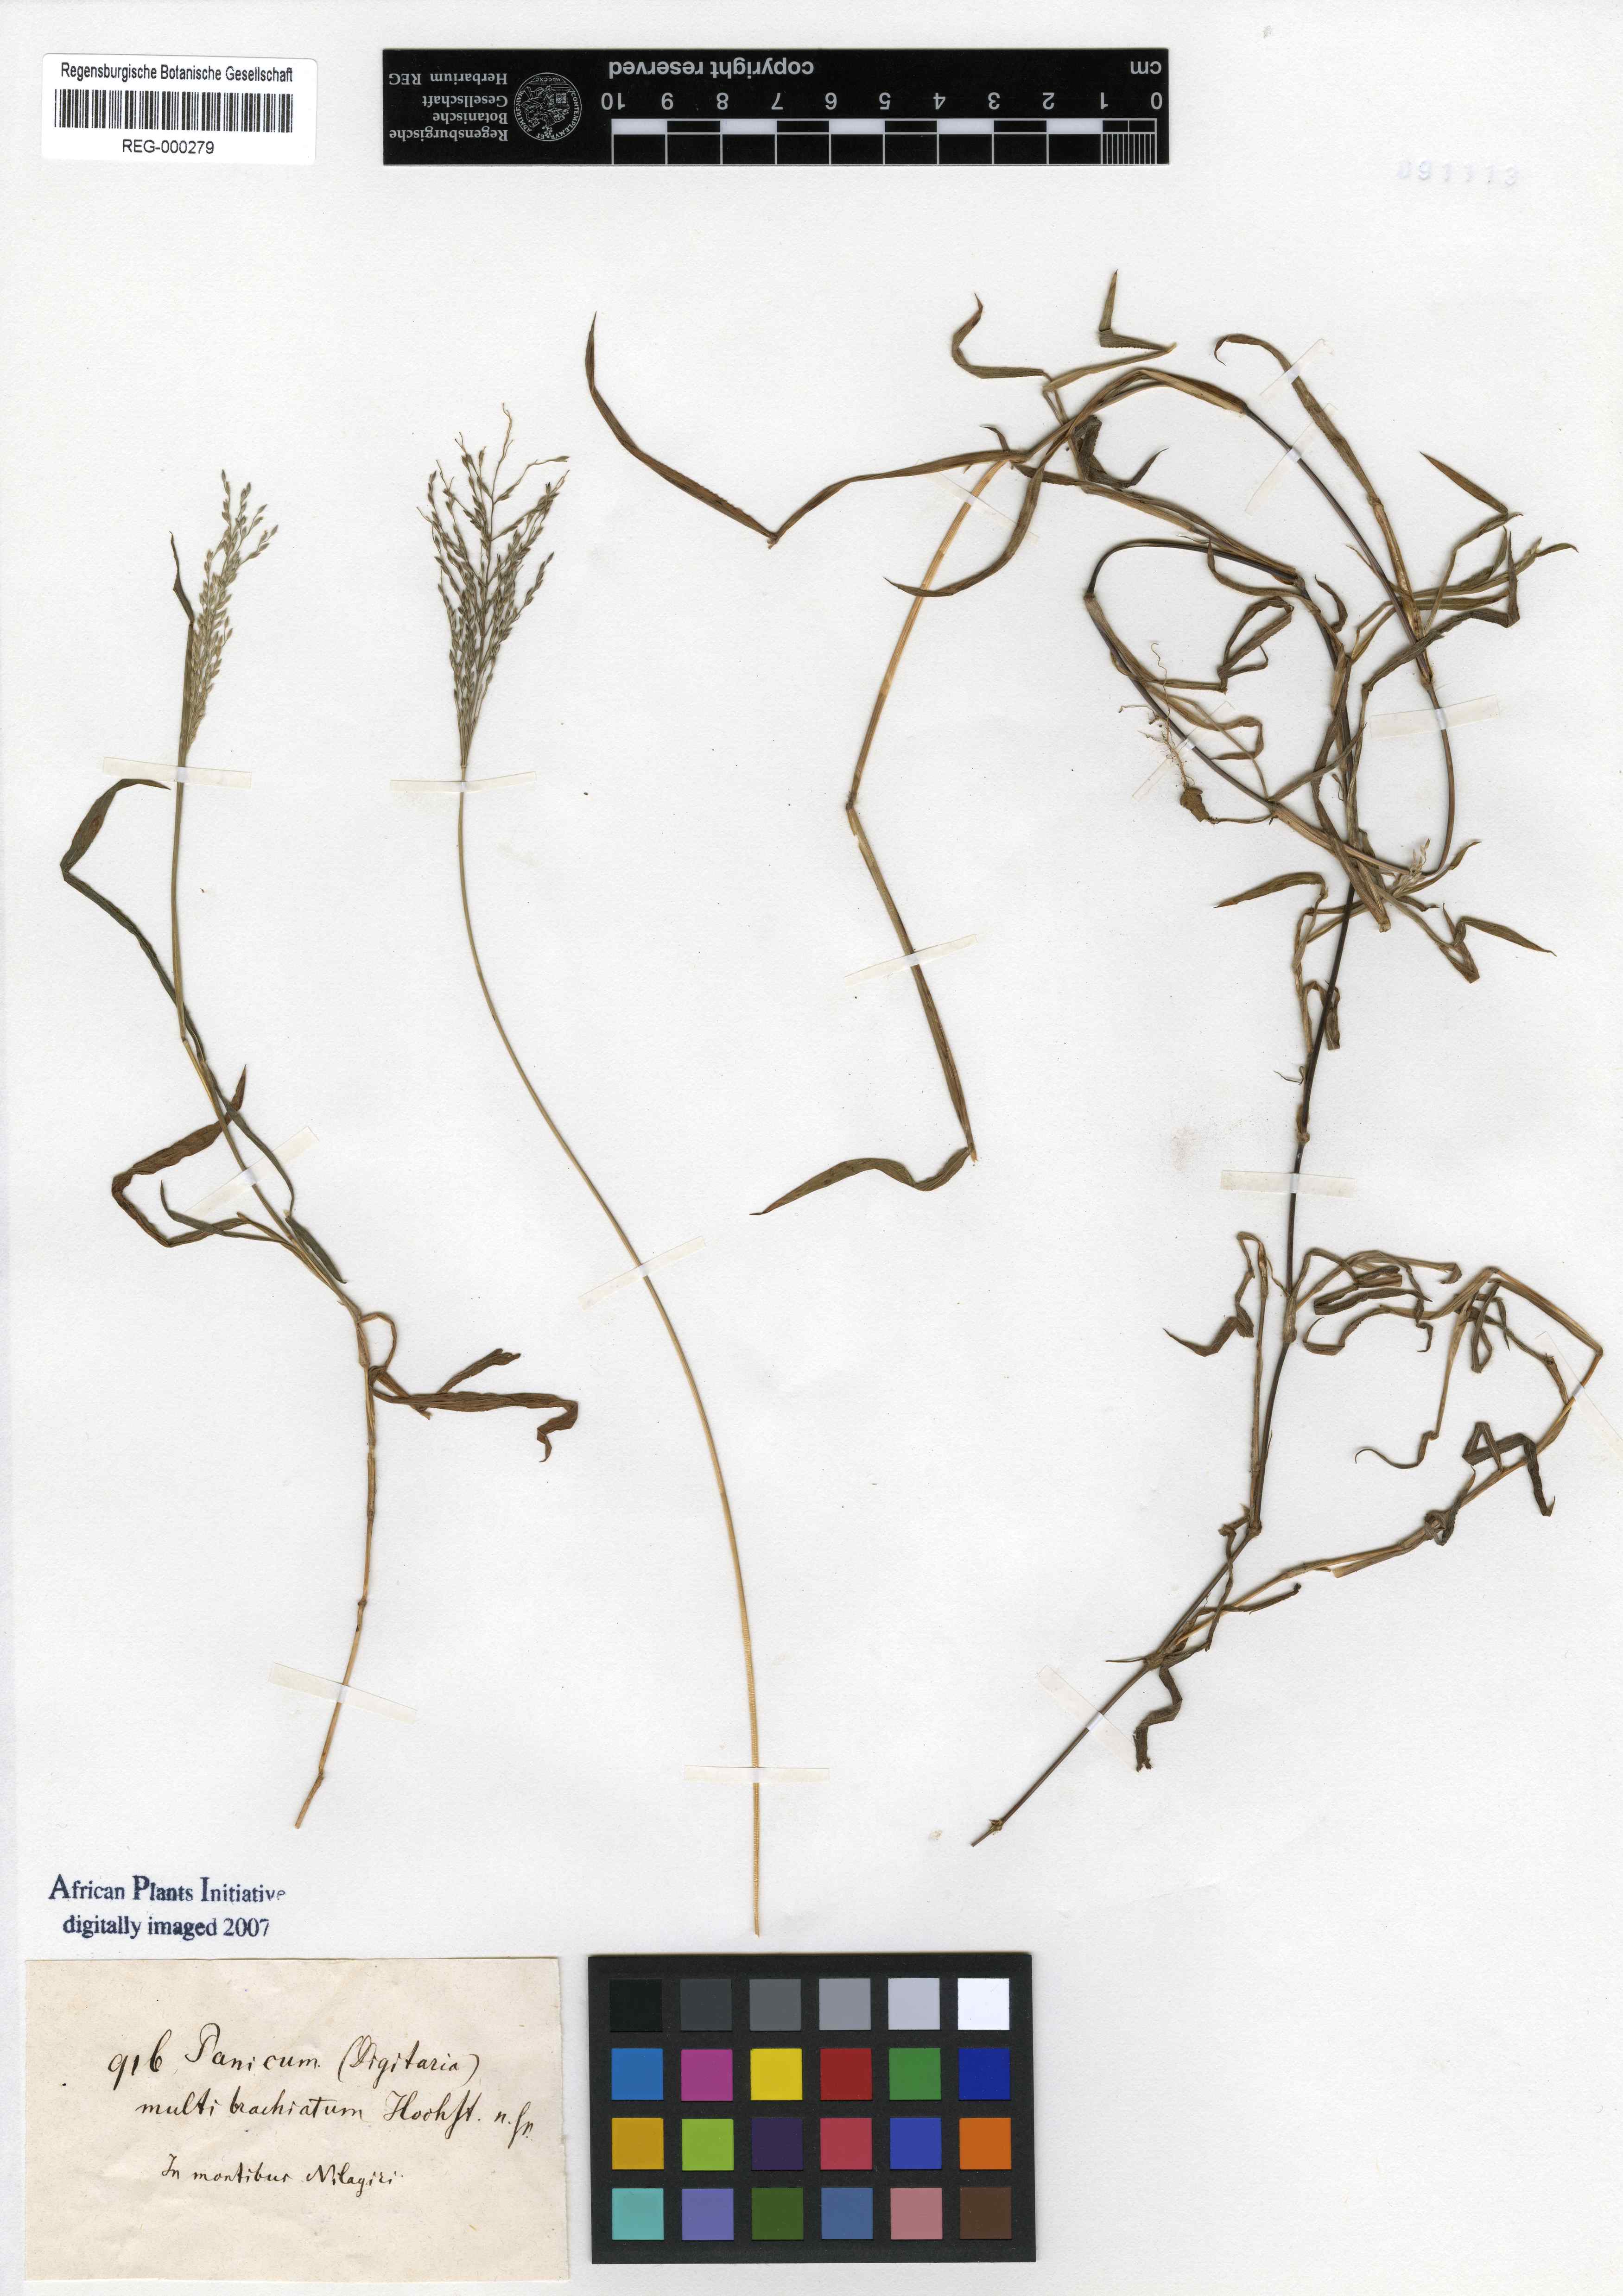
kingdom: Plantae
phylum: Tracheophyta
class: Liliopsida
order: Poales
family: Poaceae
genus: Digitaria
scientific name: Digitaria wallichiana
